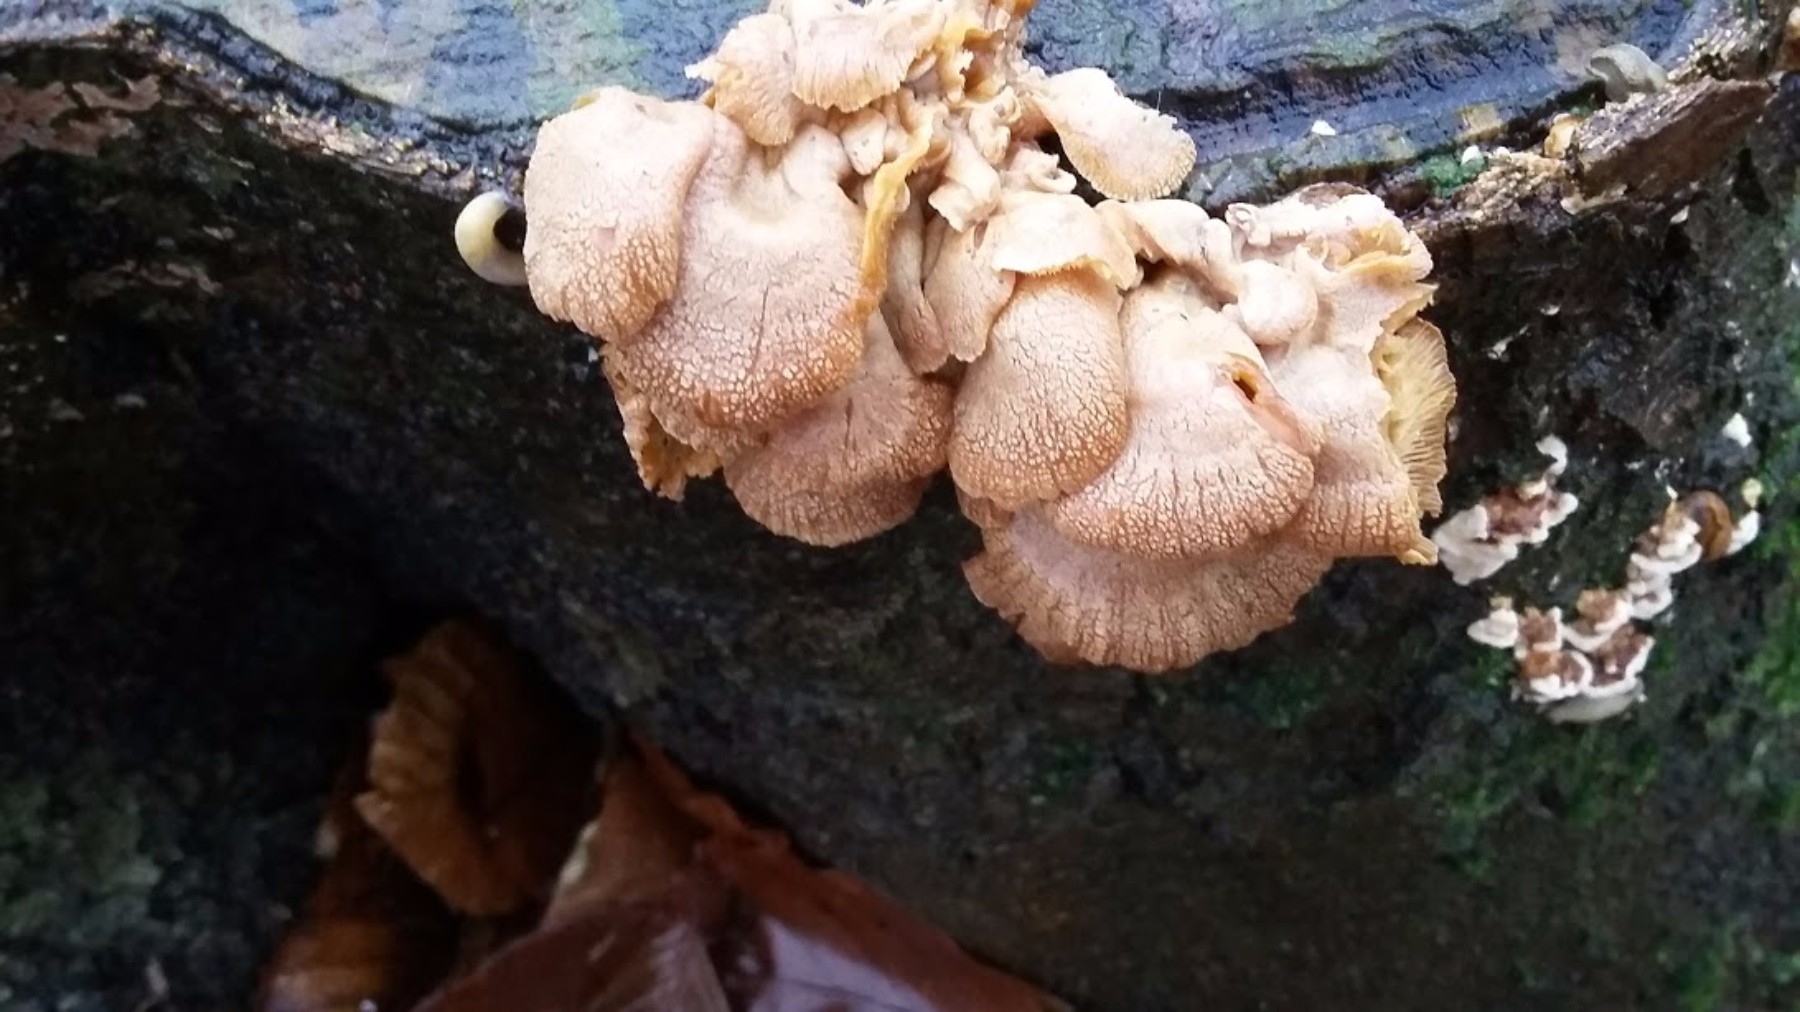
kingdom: Fungi
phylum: Basidiomycota
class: Agaricomycetes
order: Agaricales
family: Mycenaceae
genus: Panellus
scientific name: Panellus stipticus
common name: kliddet epaulethat
